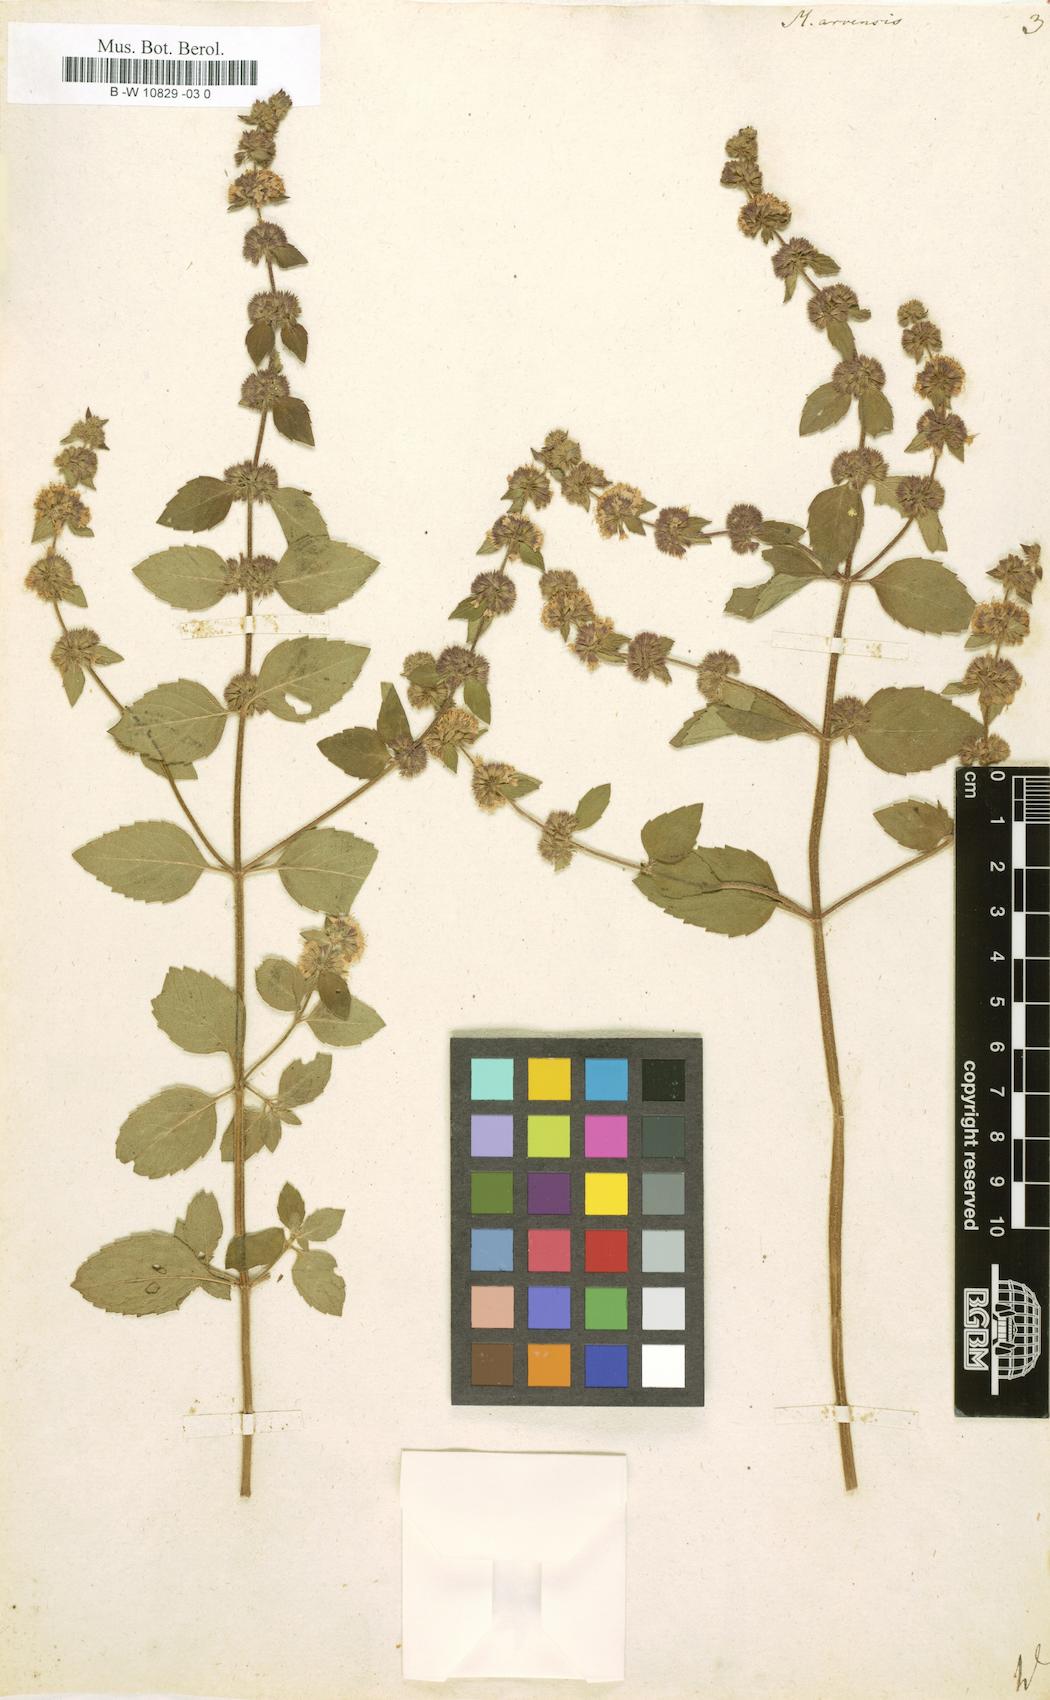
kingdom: Plantae
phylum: Tracheophyta
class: Magnoliopsida
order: Lamiales
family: Lamiaceae
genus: Mentha
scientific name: Mentha arvensis
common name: Corn mint
